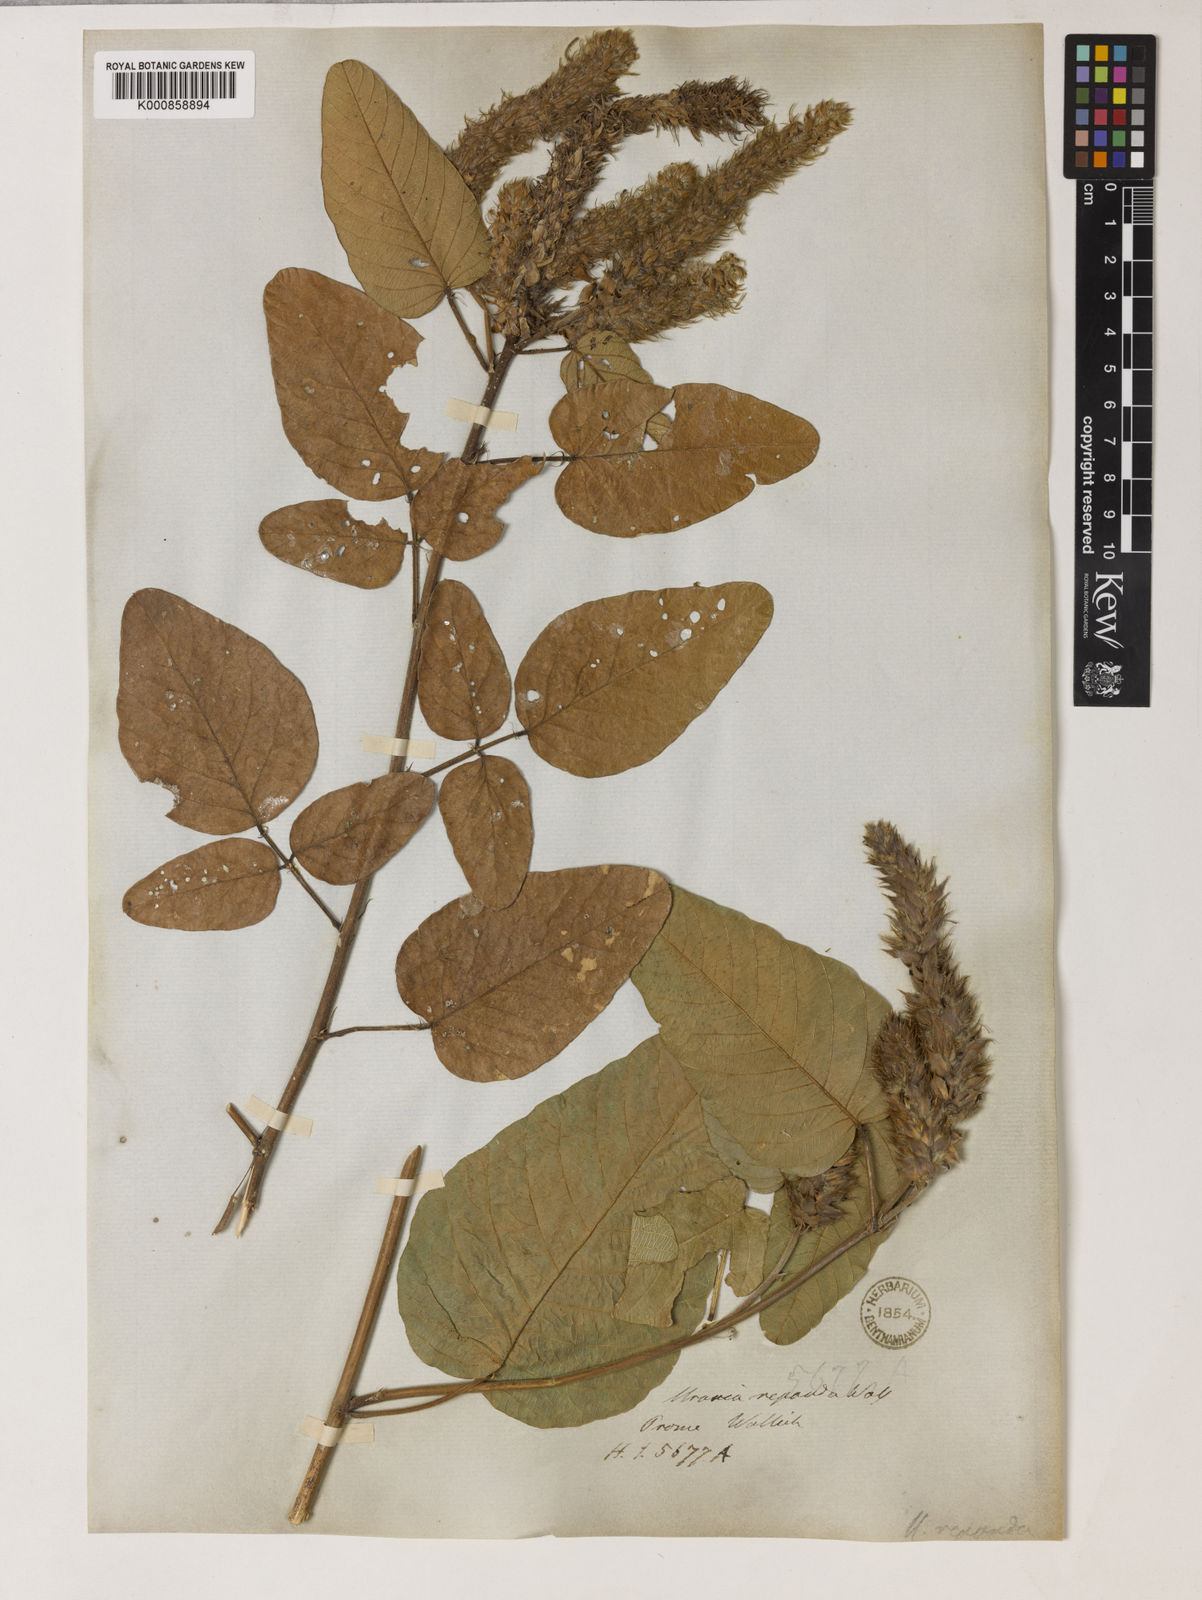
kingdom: Plantae
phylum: Tracheophyta
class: Magnoliopsida
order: Fabales
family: Fabaceae
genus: Uraria
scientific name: Uraria
